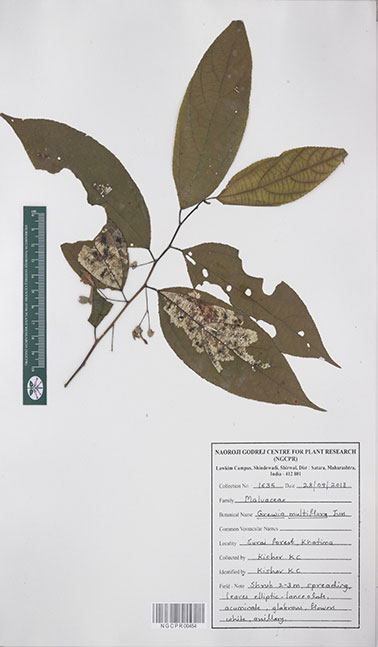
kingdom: Plantae
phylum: Tracheophyta
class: Magnoliopsida
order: Malvales
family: Malvaceae
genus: Grewia
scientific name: Grewia multiflora
